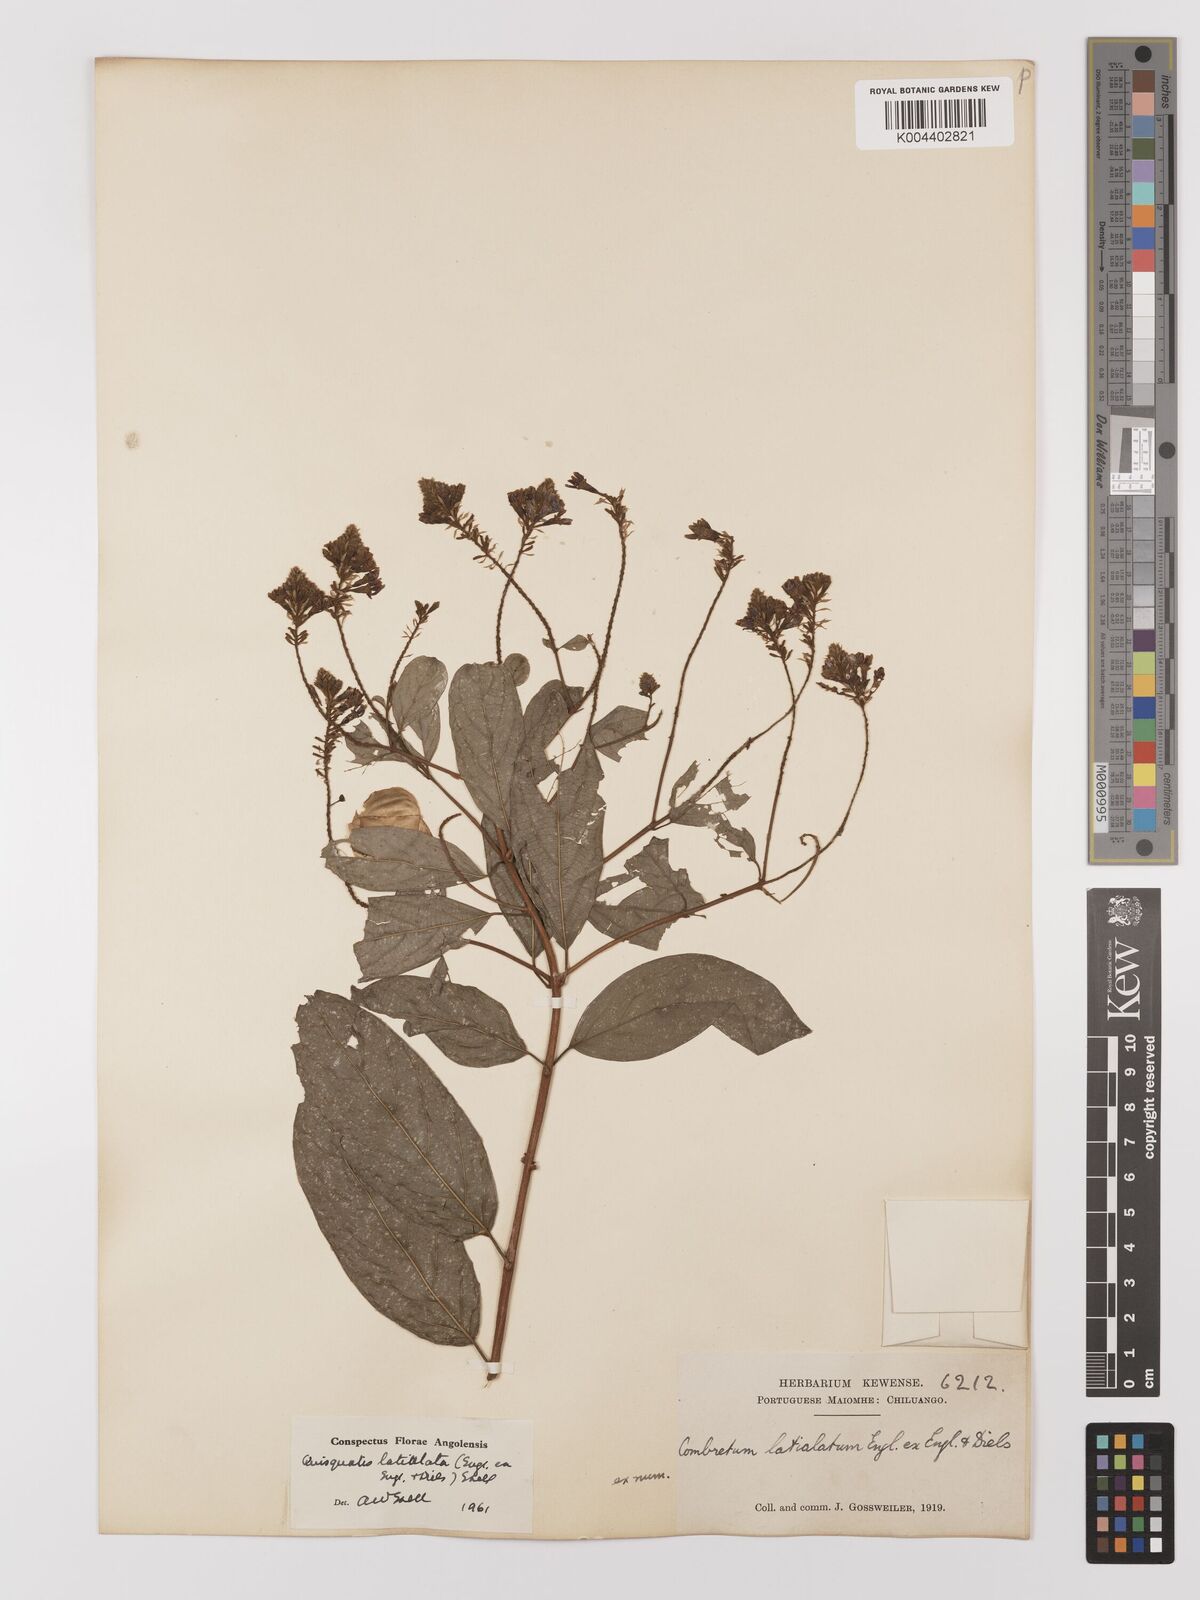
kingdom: Plantae
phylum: Tracheophyta
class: Magnoliopsida
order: Myrtales
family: Combretaceae
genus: Combretum
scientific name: Combretum latialatum
